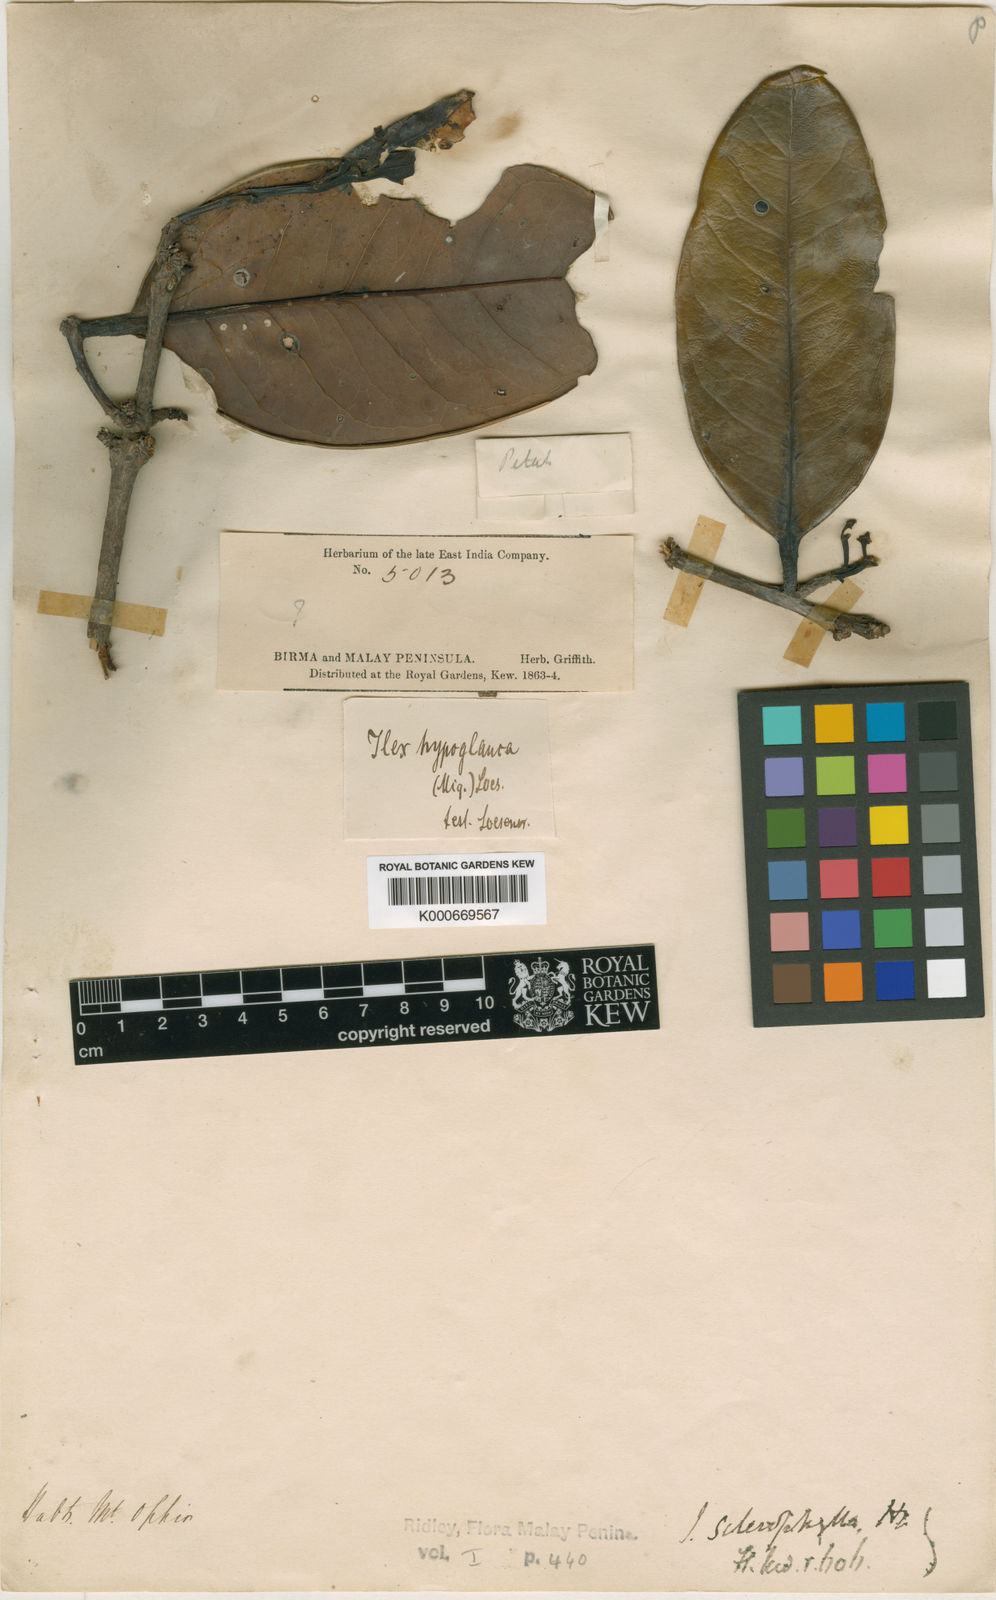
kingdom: Plantae
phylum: Tracheophyta
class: Magnoliopsida
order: Aquifoliales
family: Aquifoliaceae
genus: Ilex
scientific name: Ilex sclerophylla
